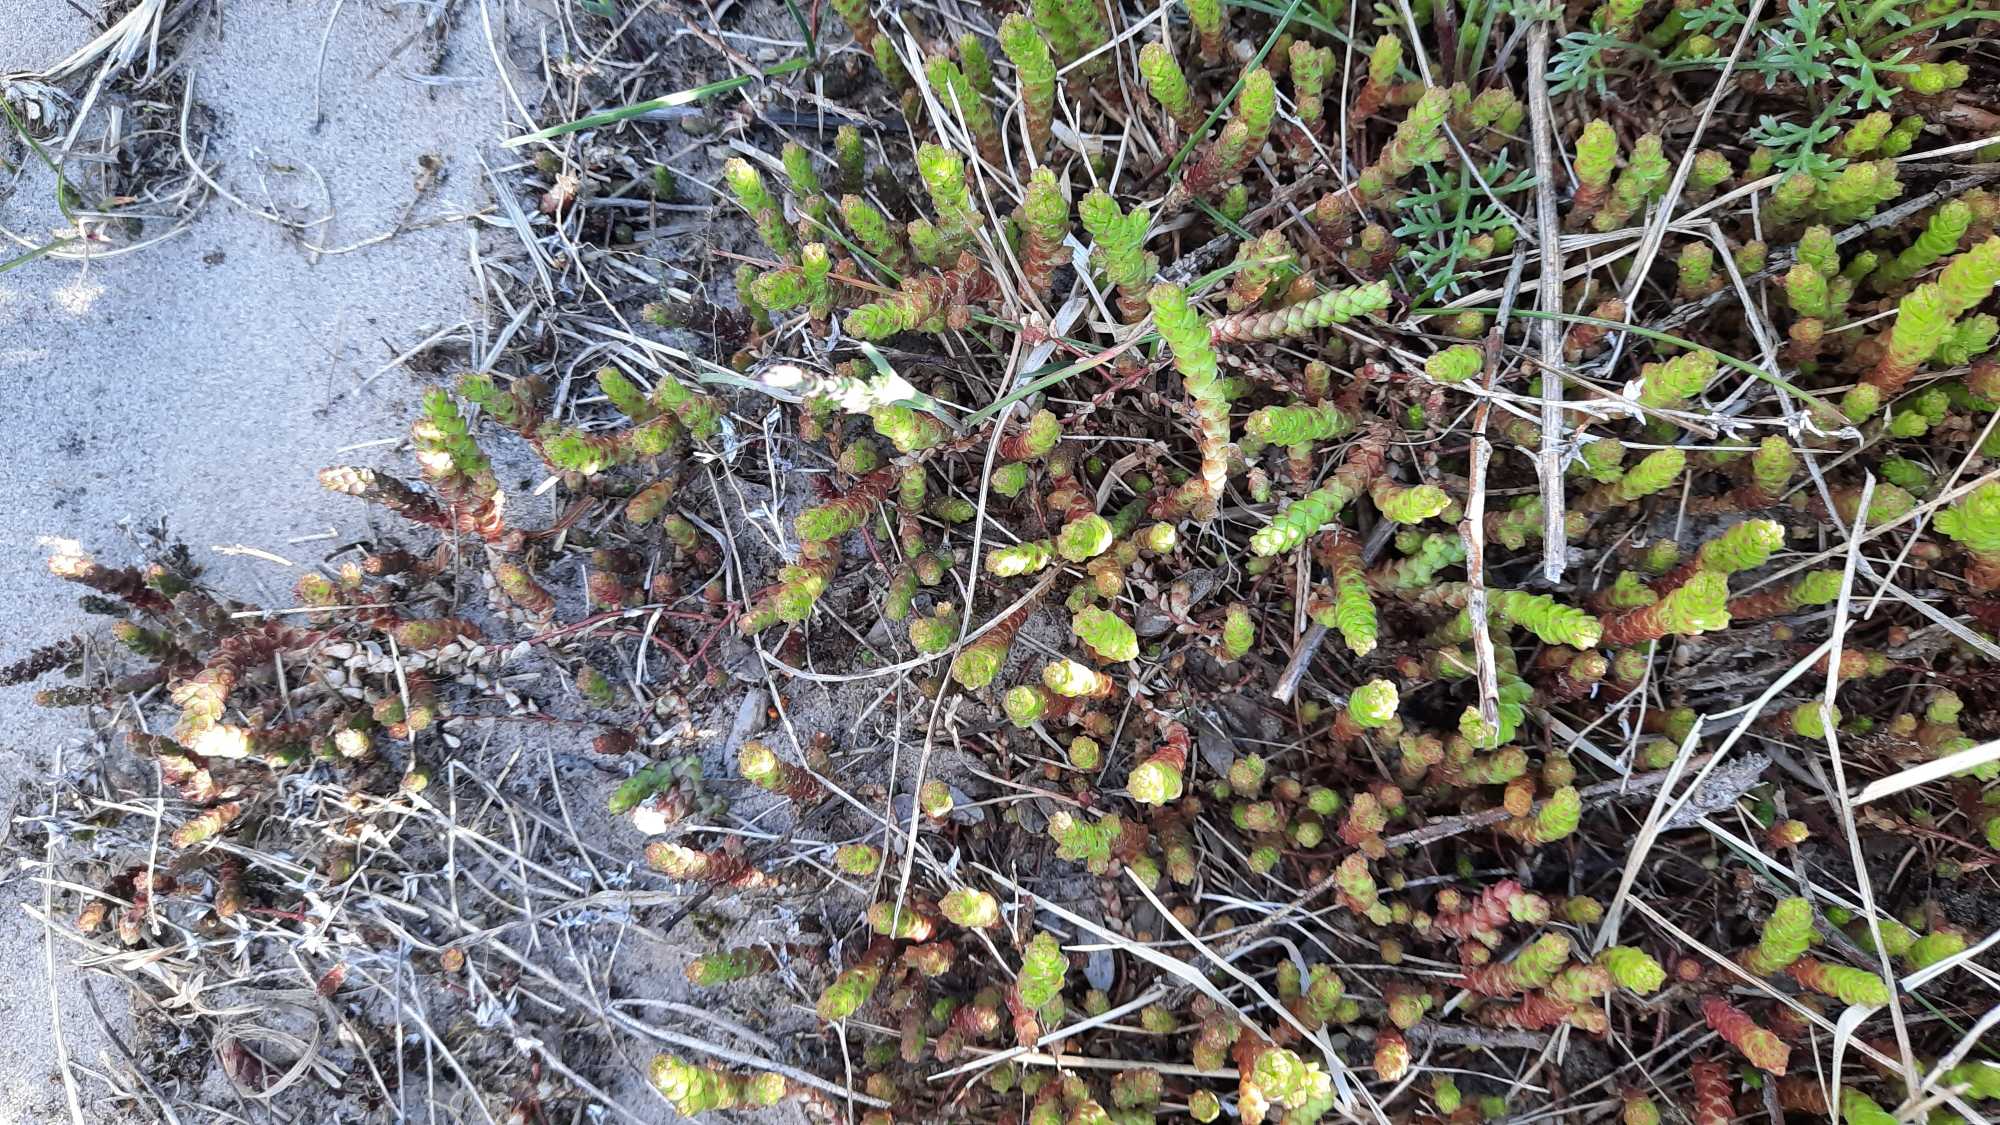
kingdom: Plantae
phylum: Tracheophyta
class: Magnoliopsida
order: Saxifragales
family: Crassulaceae
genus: Sedum
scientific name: Sedum acre
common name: Bidende stenurt
